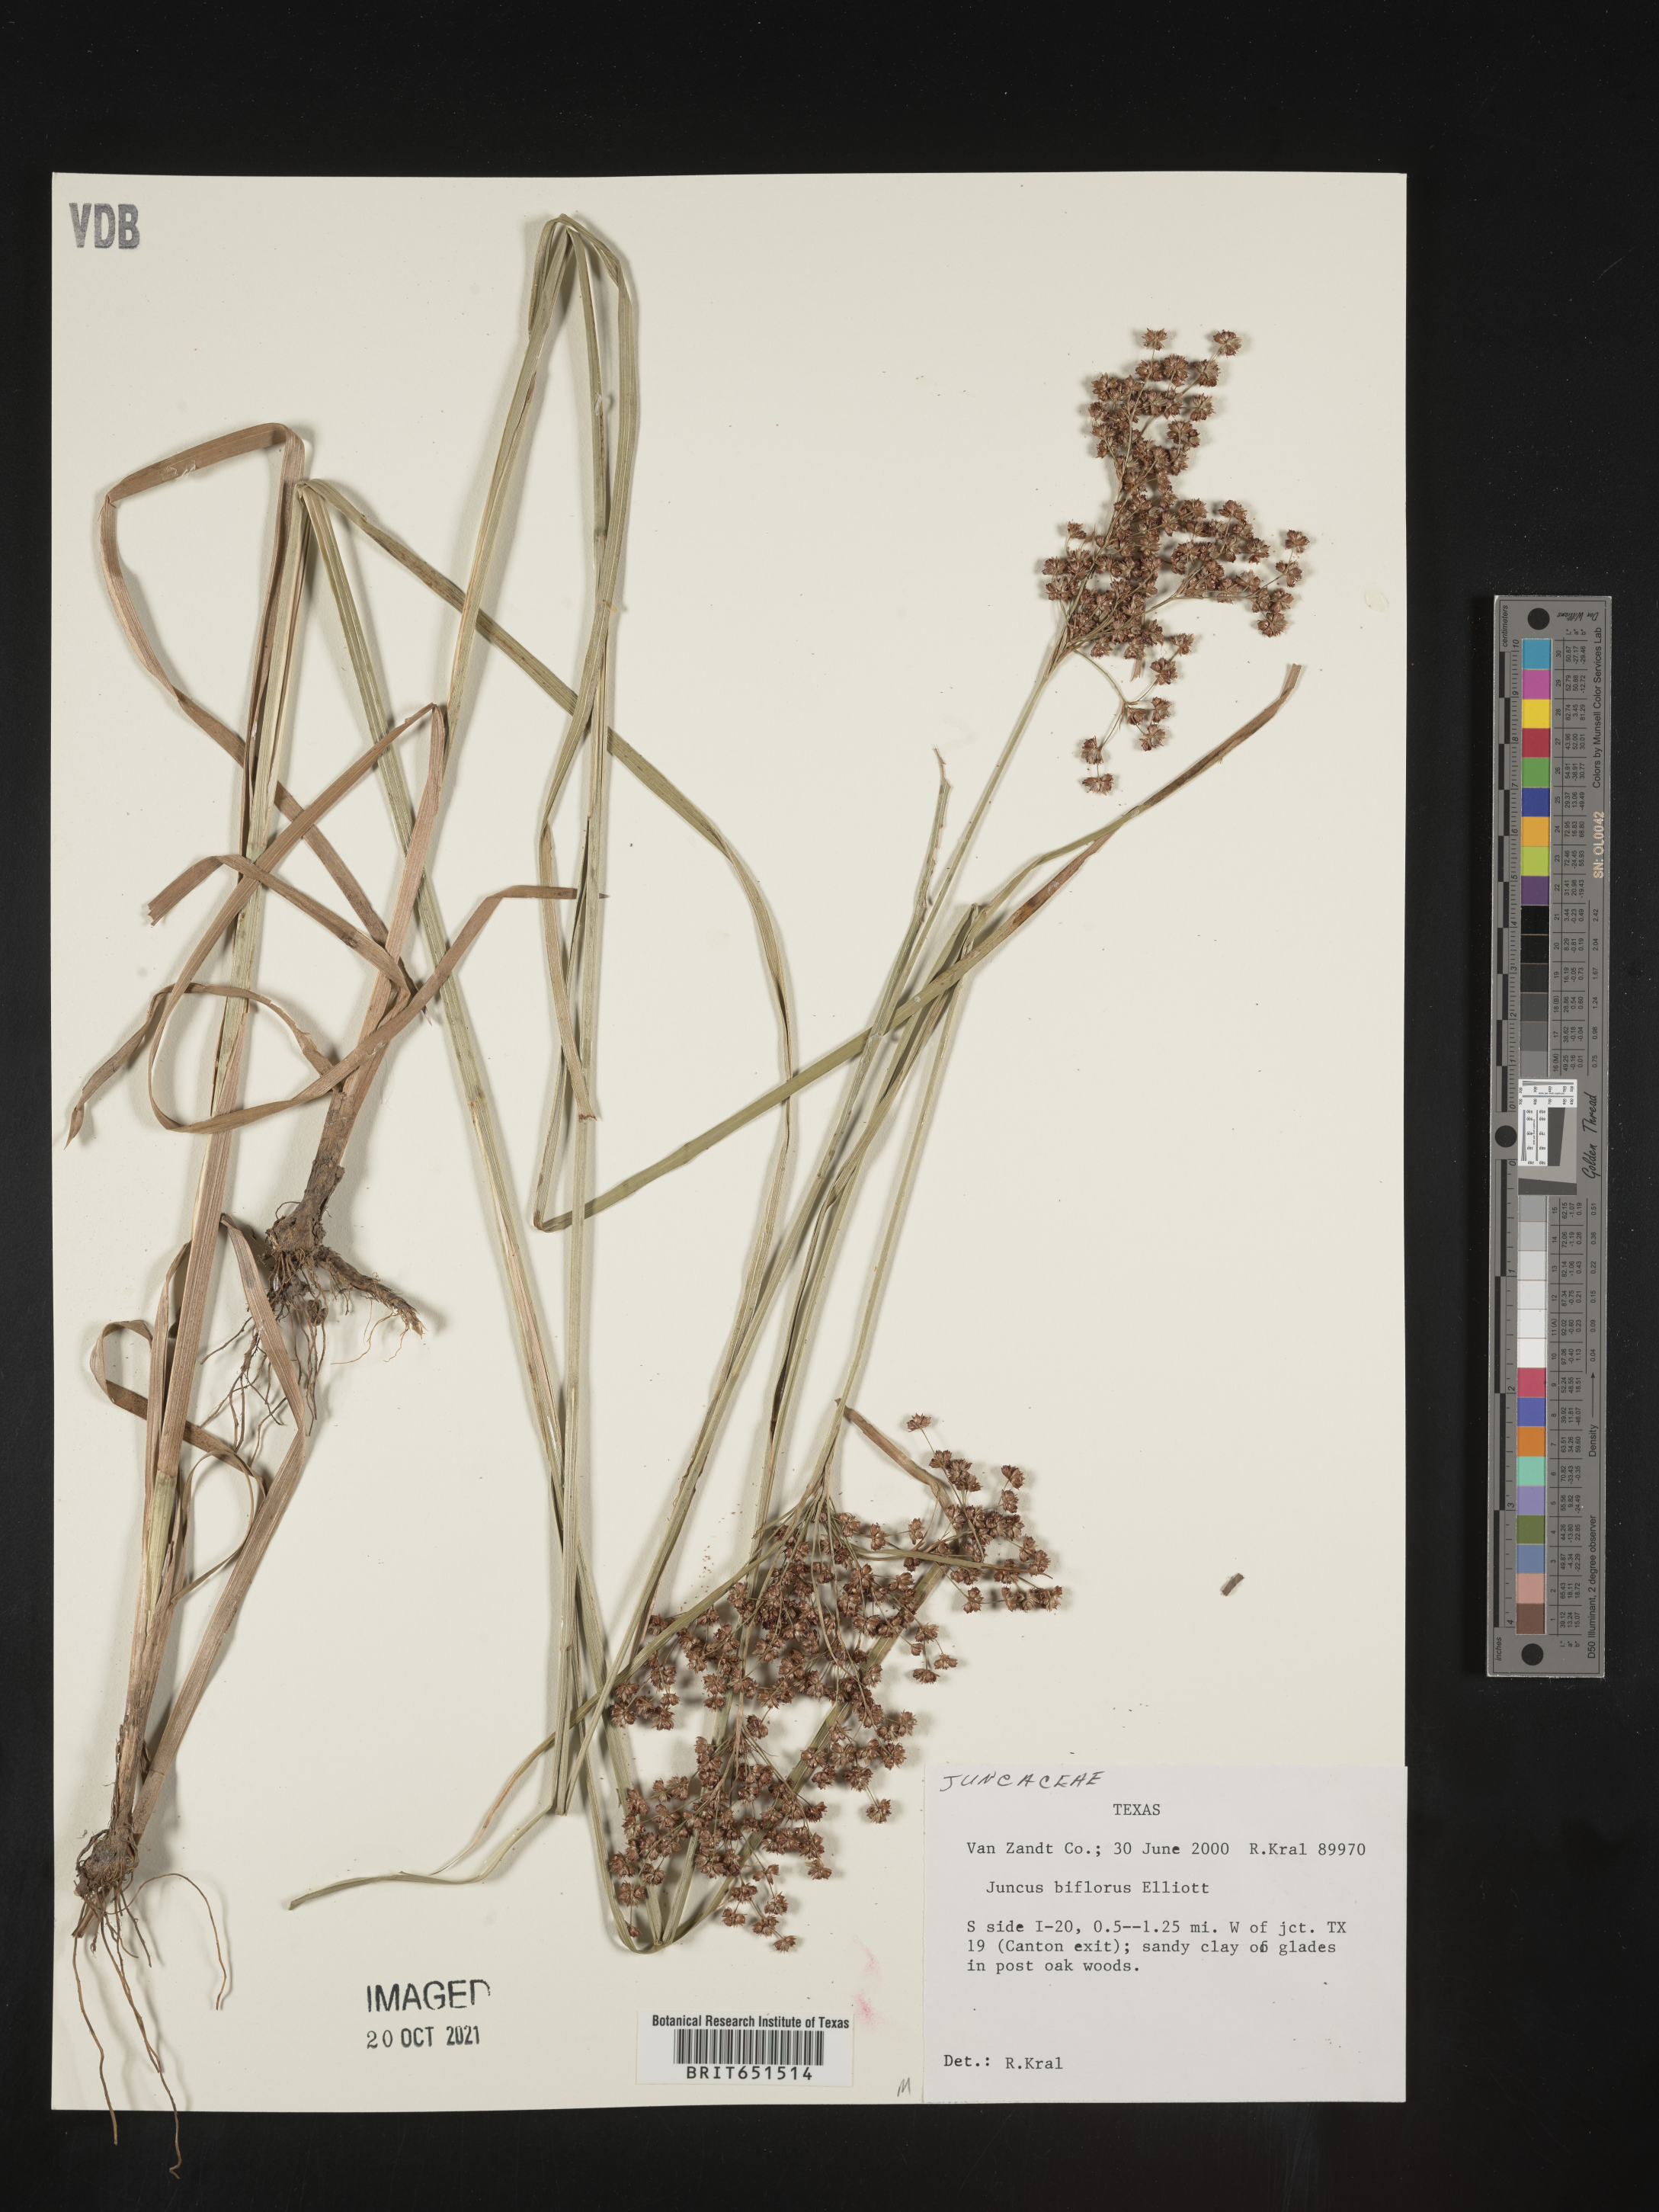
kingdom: Plantae
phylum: Tracheophyta
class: Liliopsida
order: Poales
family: Juncaceae
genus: Juncus
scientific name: Juncus biflorus
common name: Two-flowered rush
